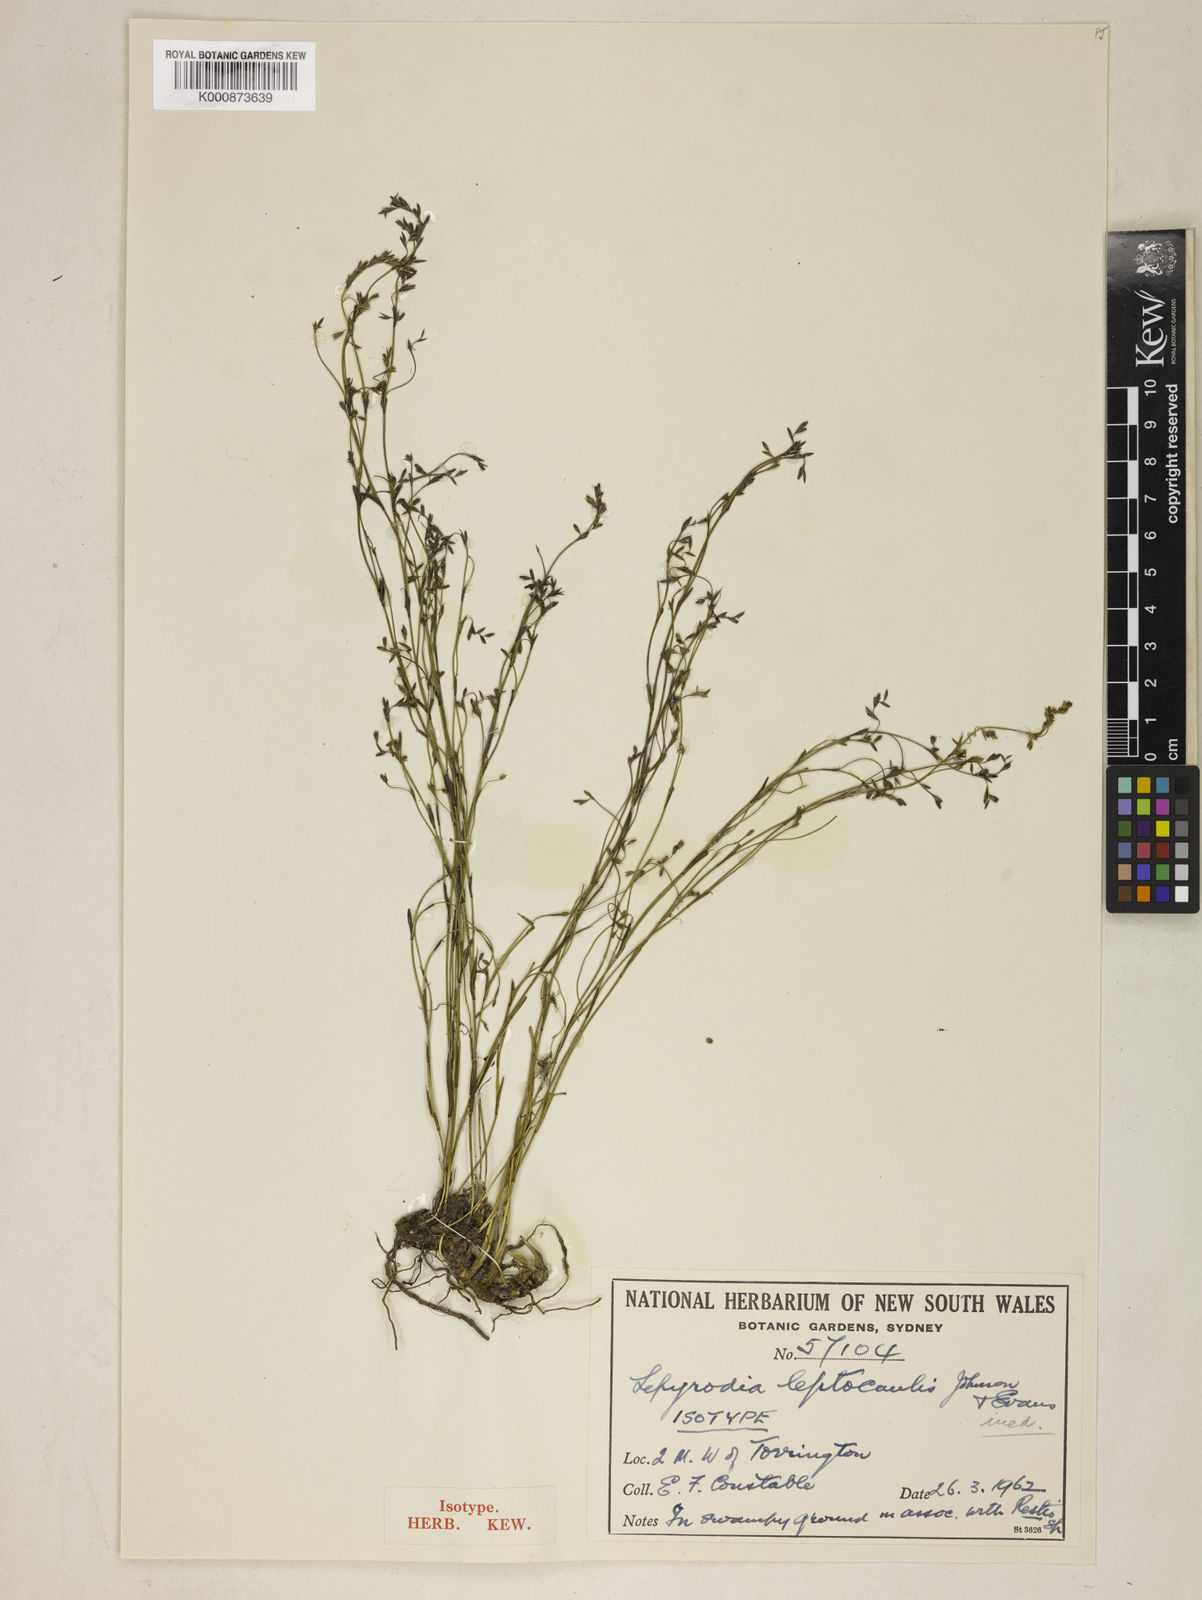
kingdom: Plantae
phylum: Tracheophyta
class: Liliopsida
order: Poales
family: Restionaceae
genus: Lepyrodia
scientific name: Lepyrodia leptocaulis
